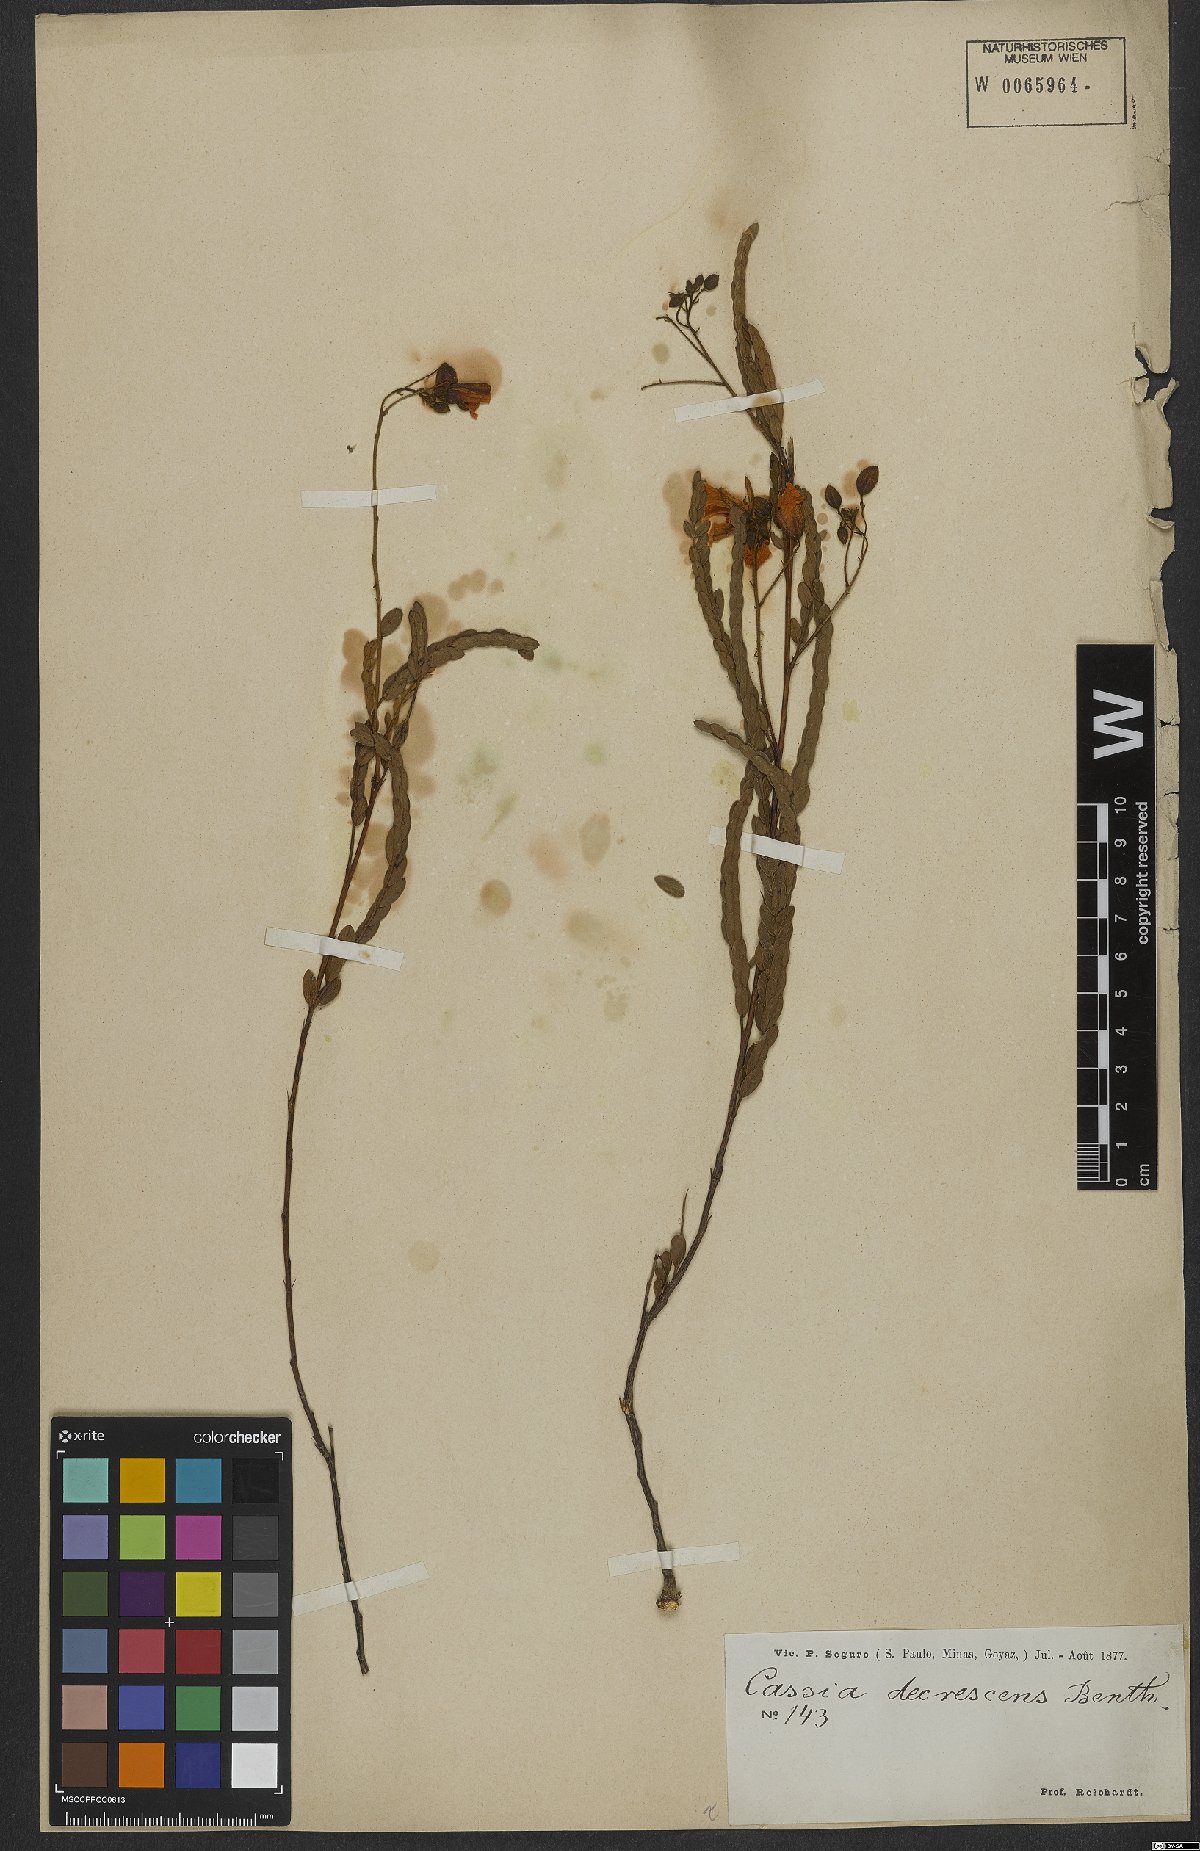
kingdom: Plantae
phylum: Tracheophyta
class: Magnoliopsida
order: Fabales
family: Fabaceae
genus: Chamaecrista
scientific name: Chamaecrista decrescens
